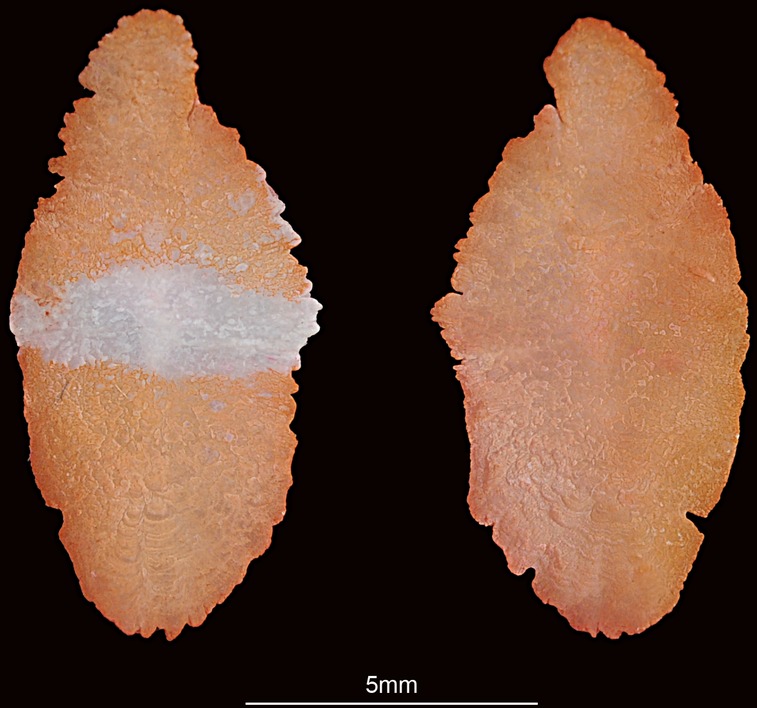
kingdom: Animalia
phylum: Chordata
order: Perciformes
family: Serranidae
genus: Epinephelus
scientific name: Epinephelus epistictus
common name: Dotted grouper
